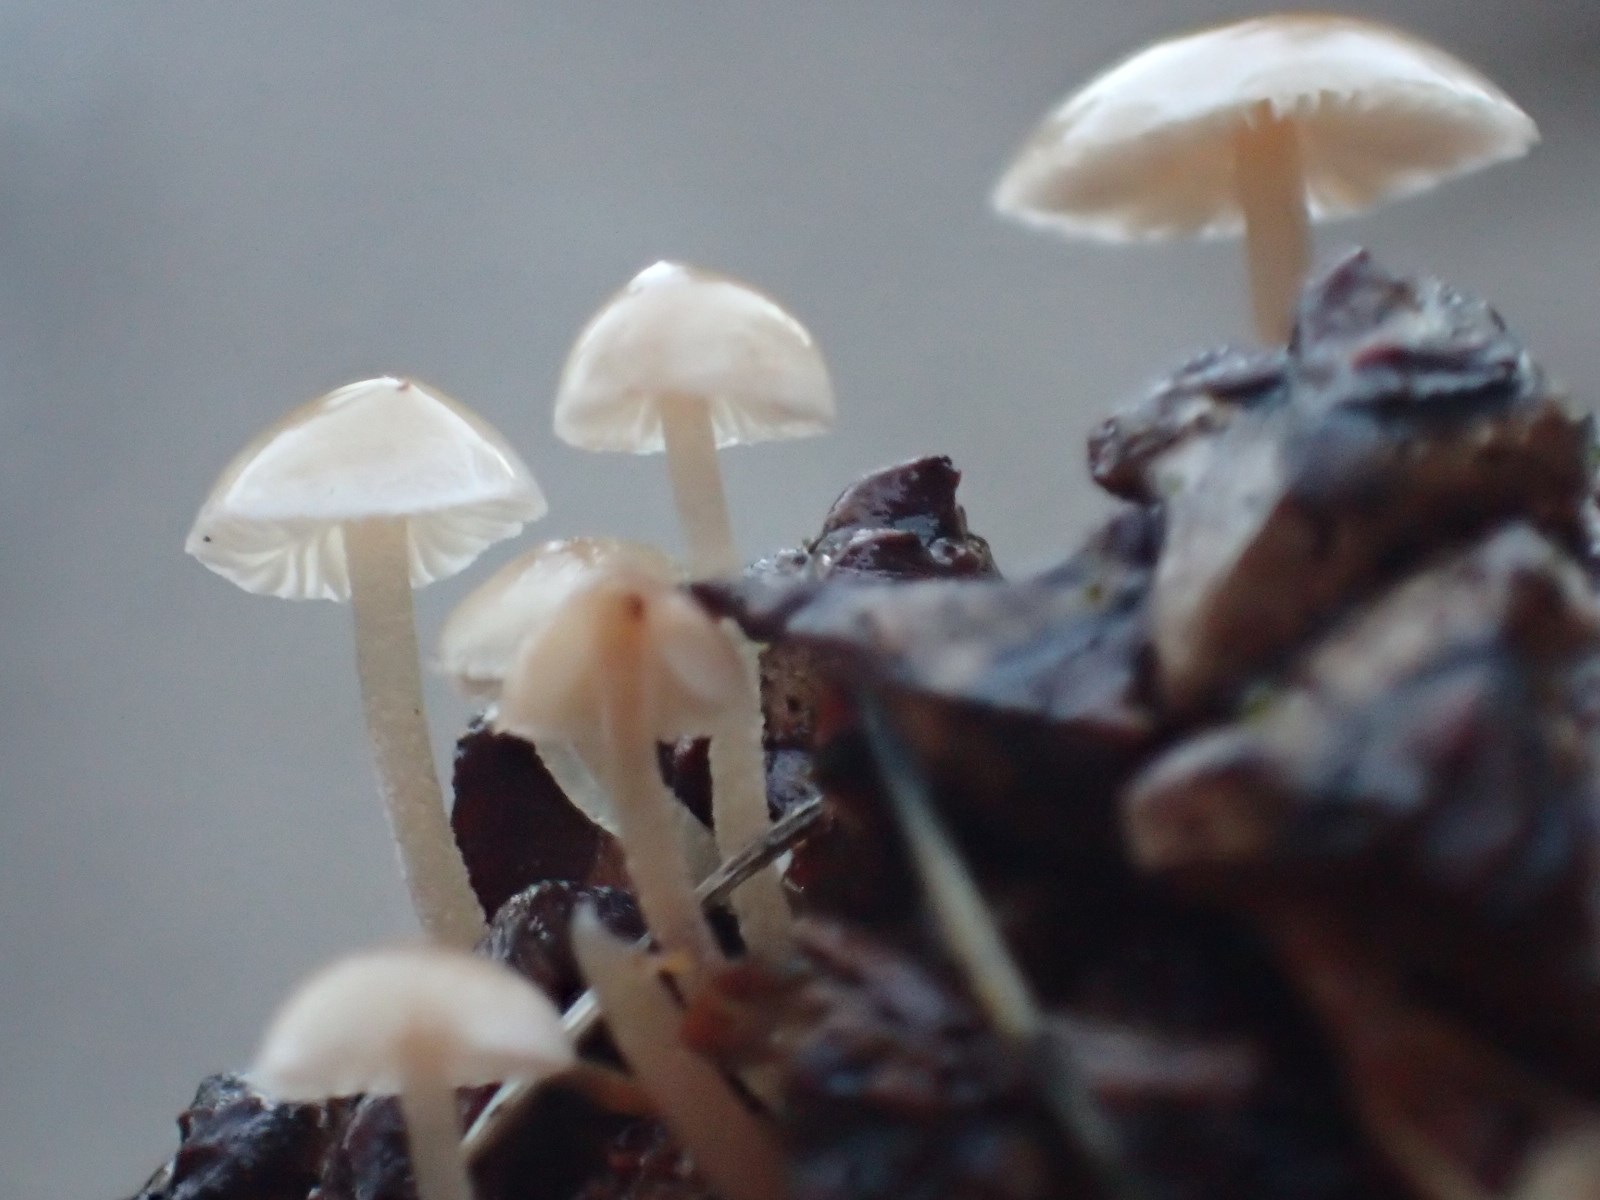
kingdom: Fungi
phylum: Basidiomycota
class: Agaricomycetes
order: Agaricales
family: Marasmiaceae
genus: Baeospora
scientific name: Baeospora myosura
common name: koglebruskhat
